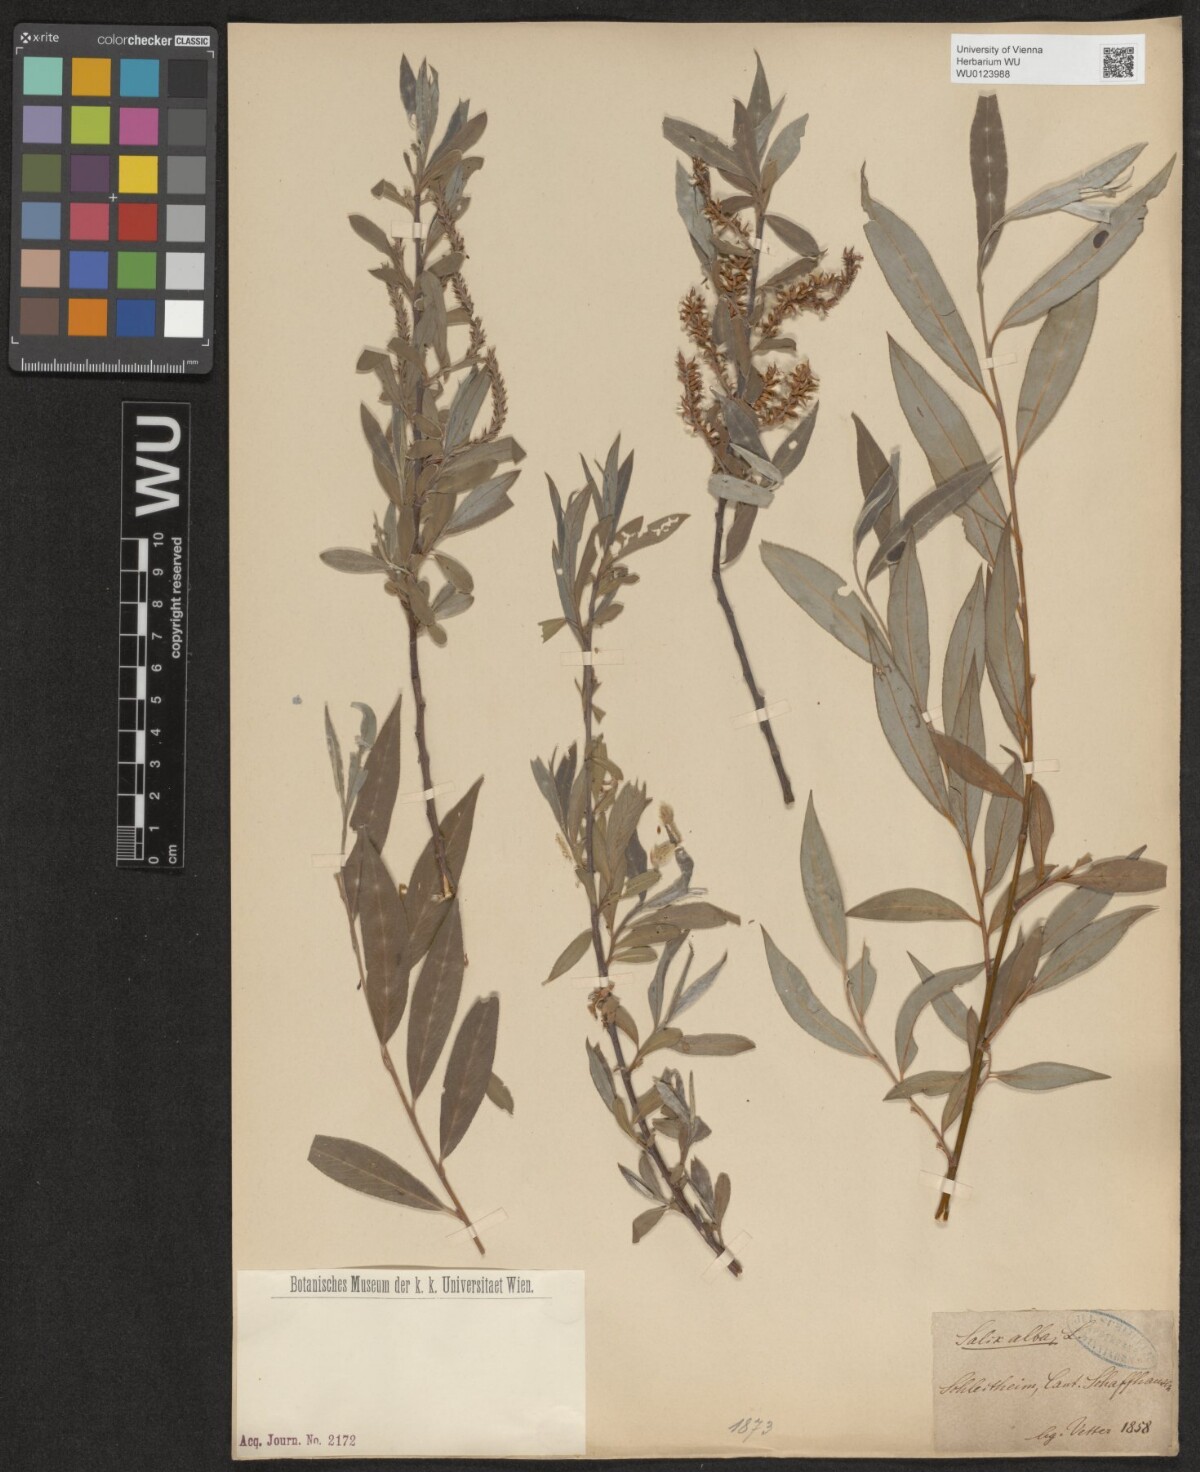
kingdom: Plantae
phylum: Tracheophyta
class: Magnoliopsida
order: Malpighiales
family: Salicaceae
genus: Salix
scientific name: Salix alba
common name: White willow
